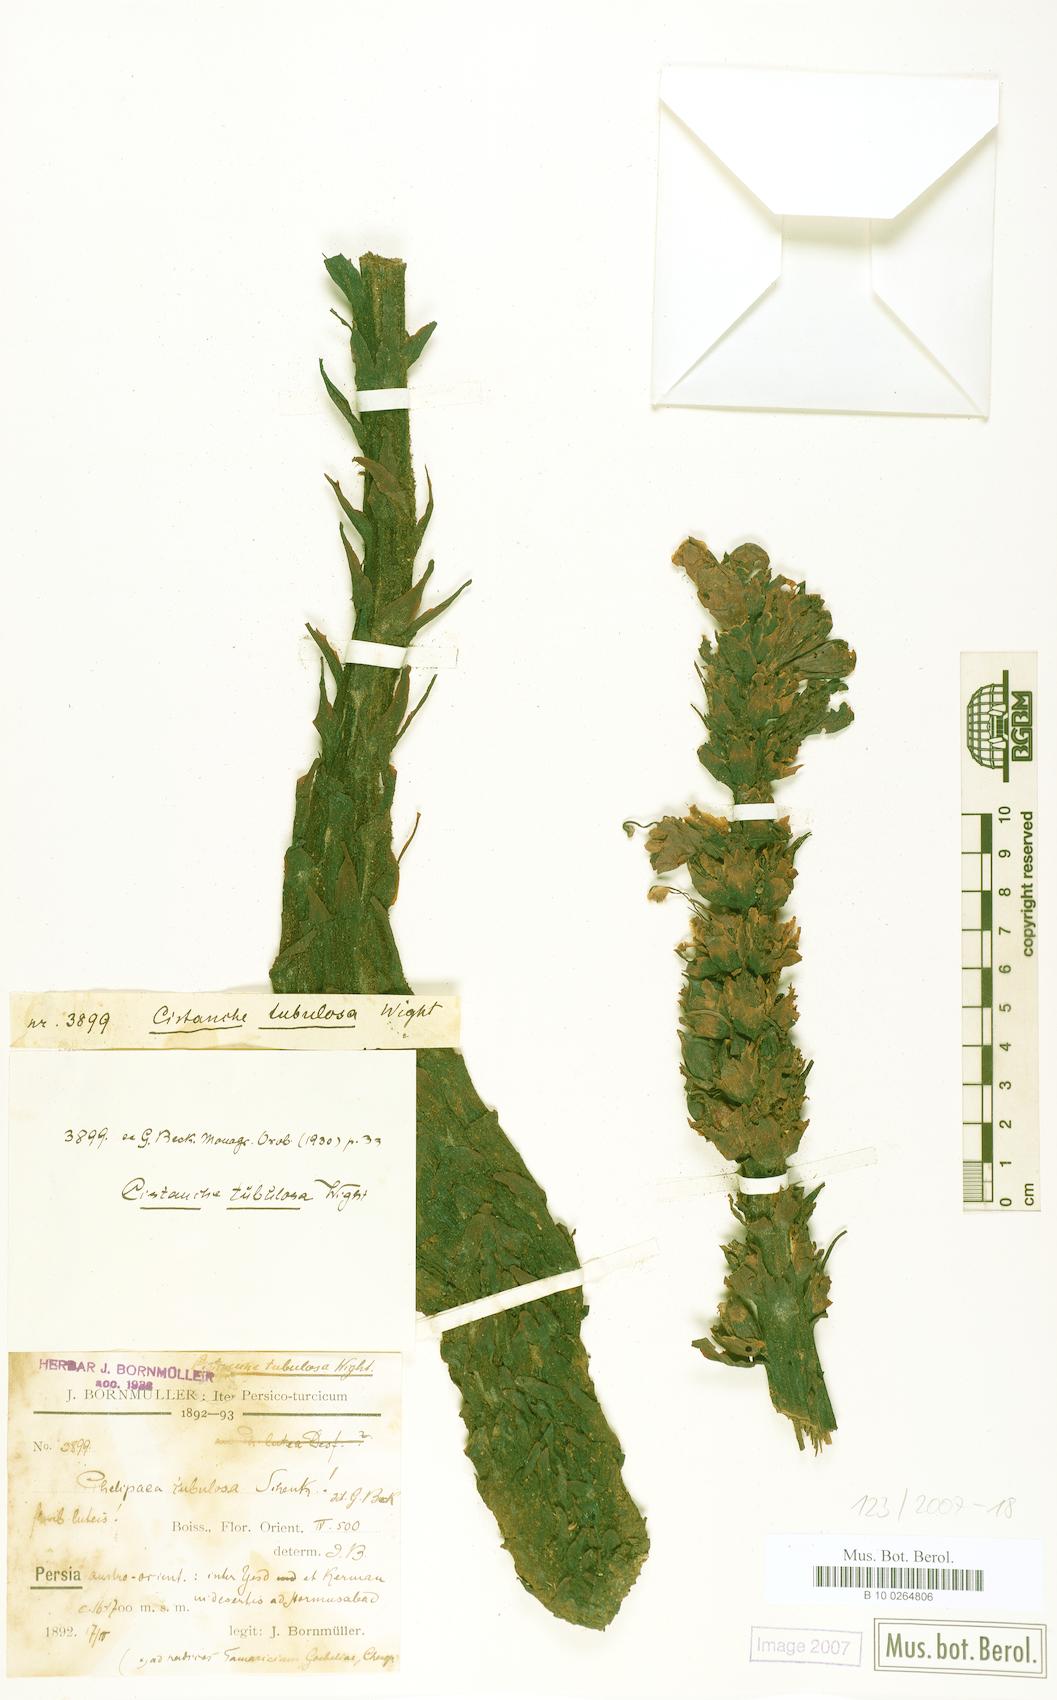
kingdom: Plantae
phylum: Tracheophyta
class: Magnoliopsida
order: Lamiales
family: Orobanchaceae
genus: Cistanche
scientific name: Cistanche tubulosa
